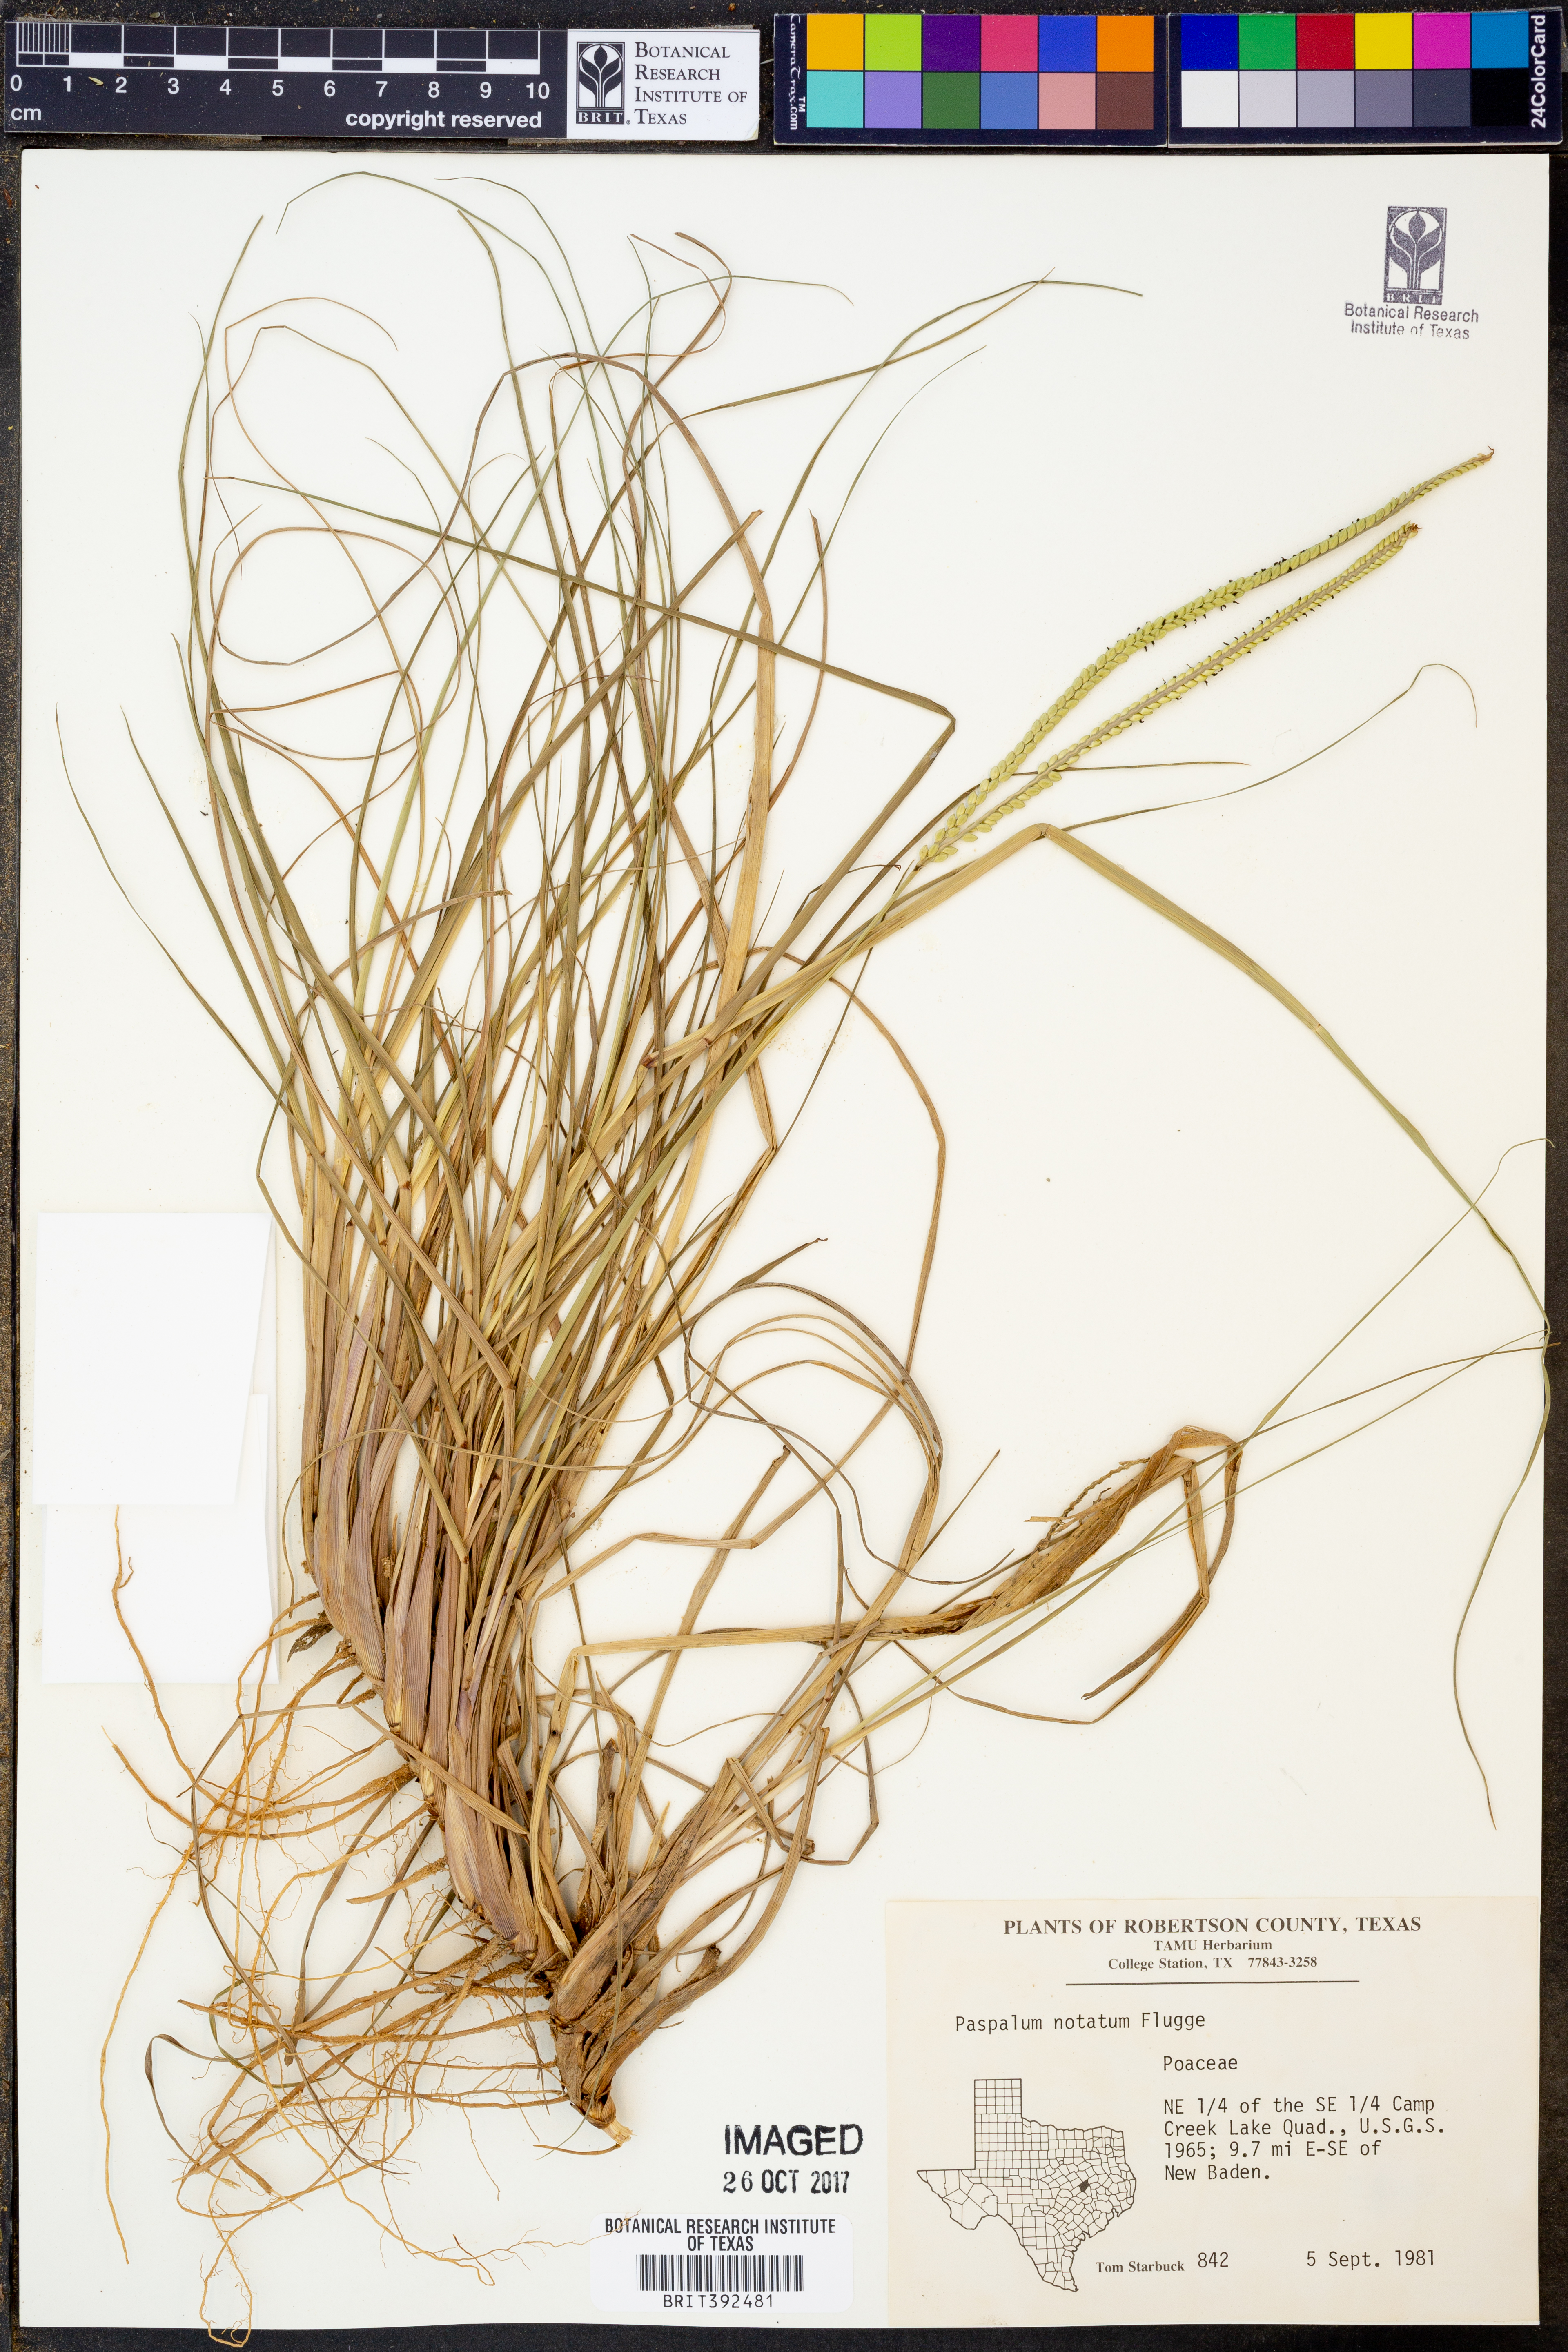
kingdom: Plantae
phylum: Tracheophyta
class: Liliopsida
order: Poales
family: Poaceae
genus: Paspalum
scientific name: Paspalum notatum
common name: Bahiagrass
